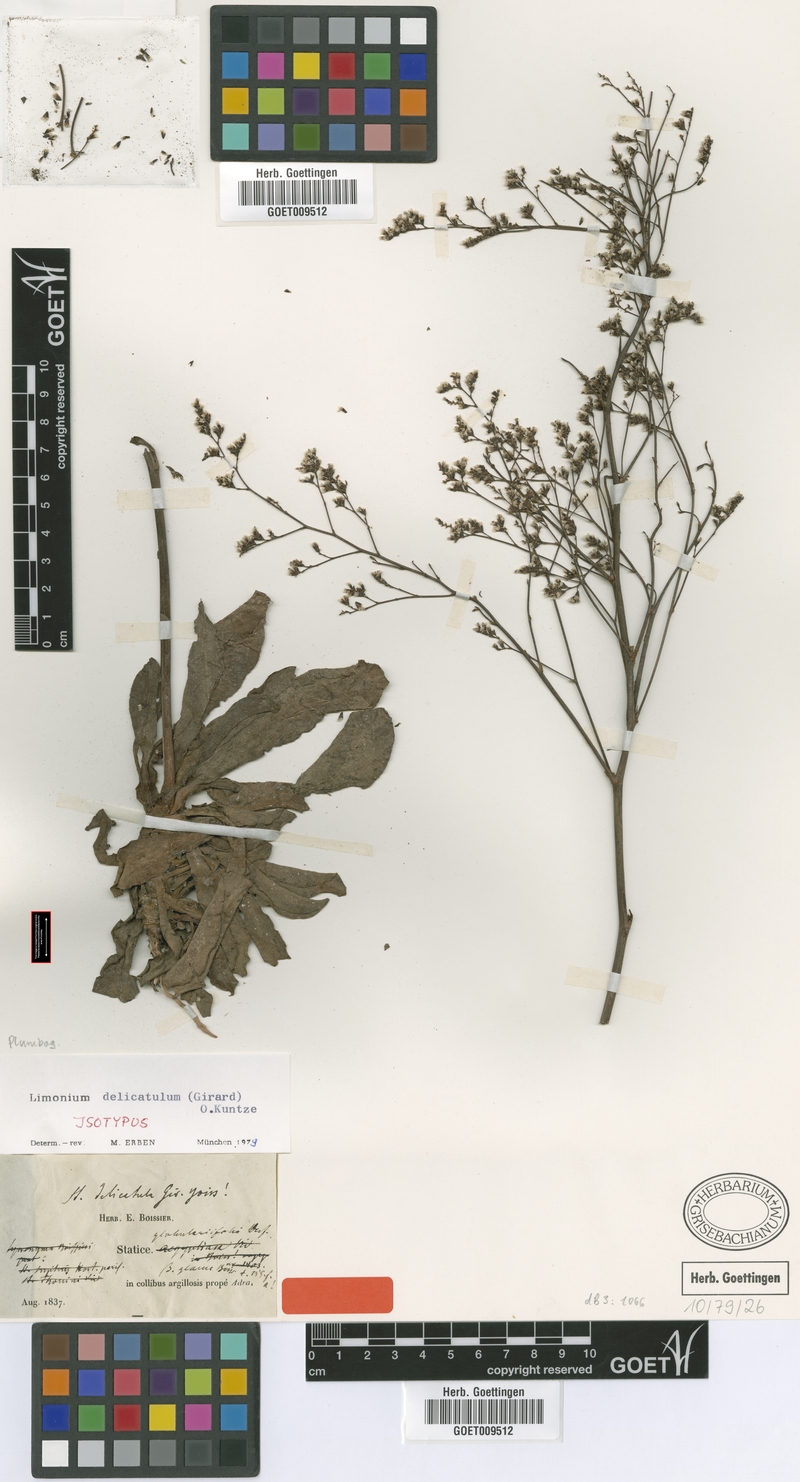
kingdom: Plantae
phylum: Tracheophyta
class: Magnoliopsida
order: Caryophyllales
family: Plumbaginaceae
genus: Limonium
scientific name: Limonium delicatulum
